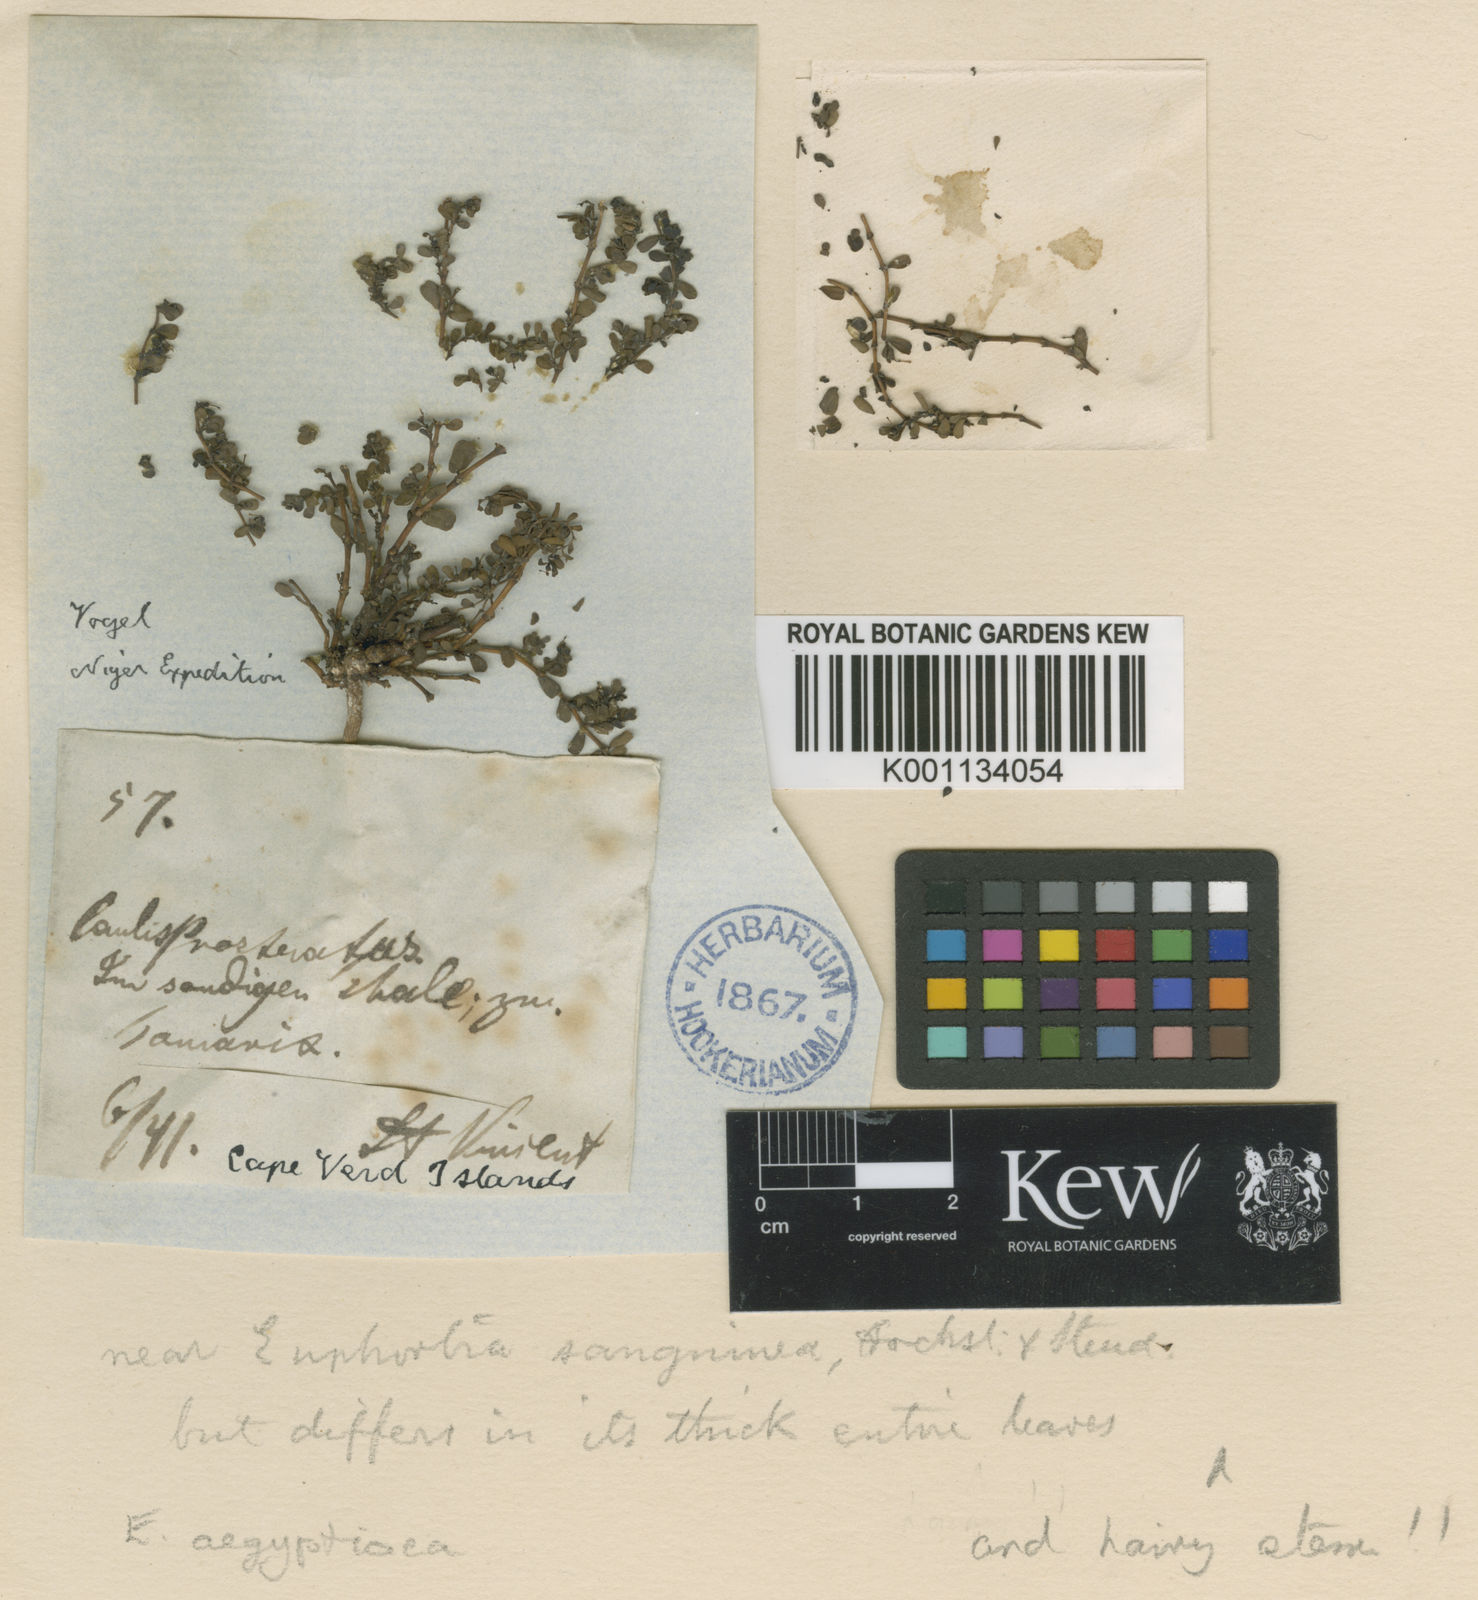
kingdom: Plantae
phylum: Tracheophyta
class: Magnoliopsida
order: Malpighiales
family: Euphorbiaceae
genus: Euphorbia
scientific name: Euphorbia
